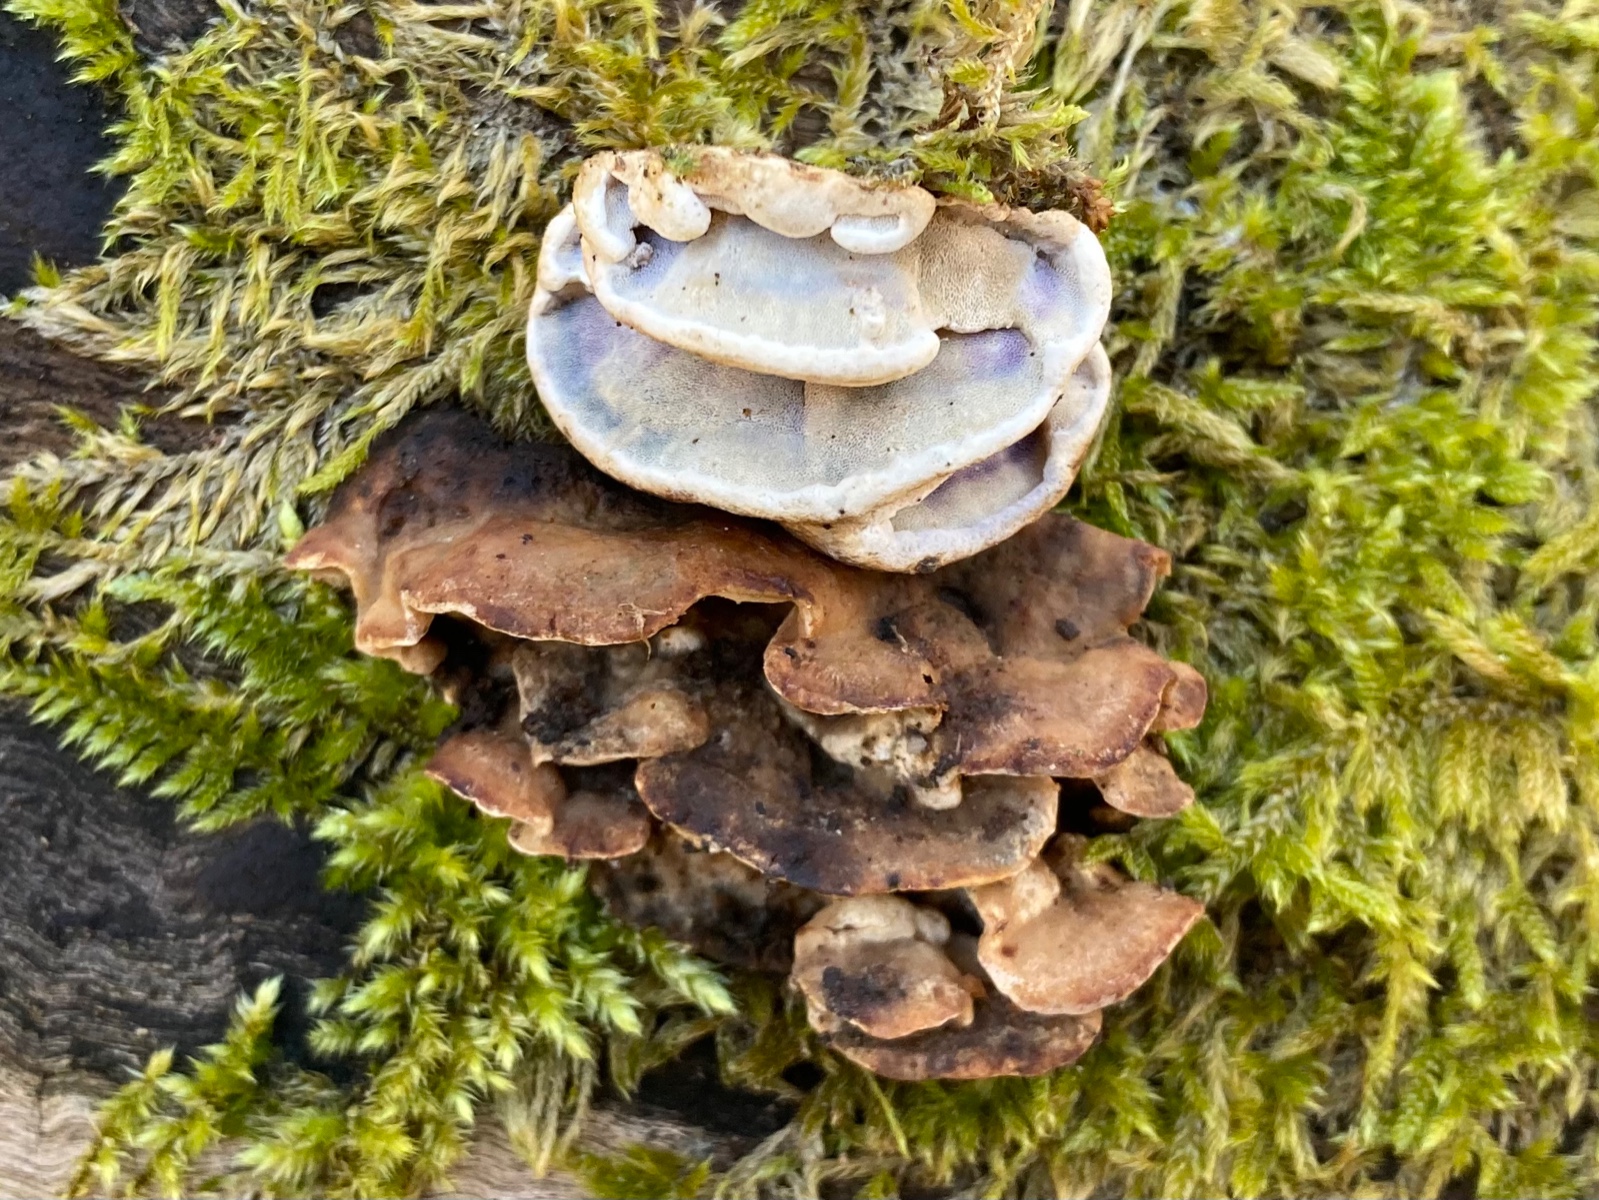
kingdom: Fungi
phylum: Basidiomycota
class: Agaricomycetes
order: Polyporales
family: Incrustoporiaceae
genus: Skeletocutis
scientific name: Skeletocutis nemoralis
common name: stor krystalporesvamp
